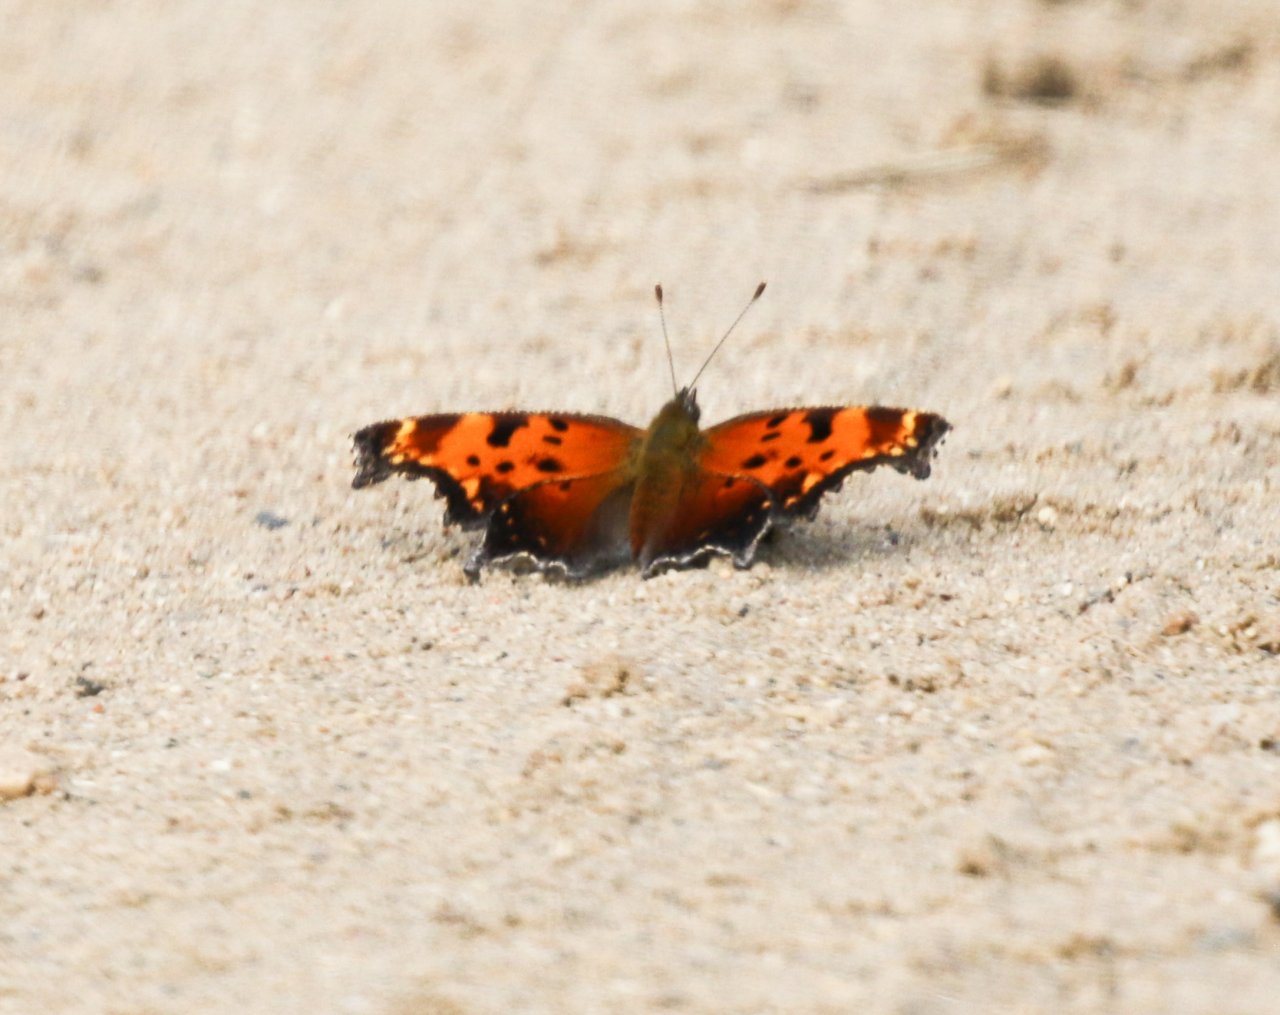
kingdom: Animalia
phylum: Arthropoda
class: Insecta
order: Lepidoptera
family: Nymphalidae
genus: Polygonia
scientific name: Polygonia progne
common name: Gray Comma
